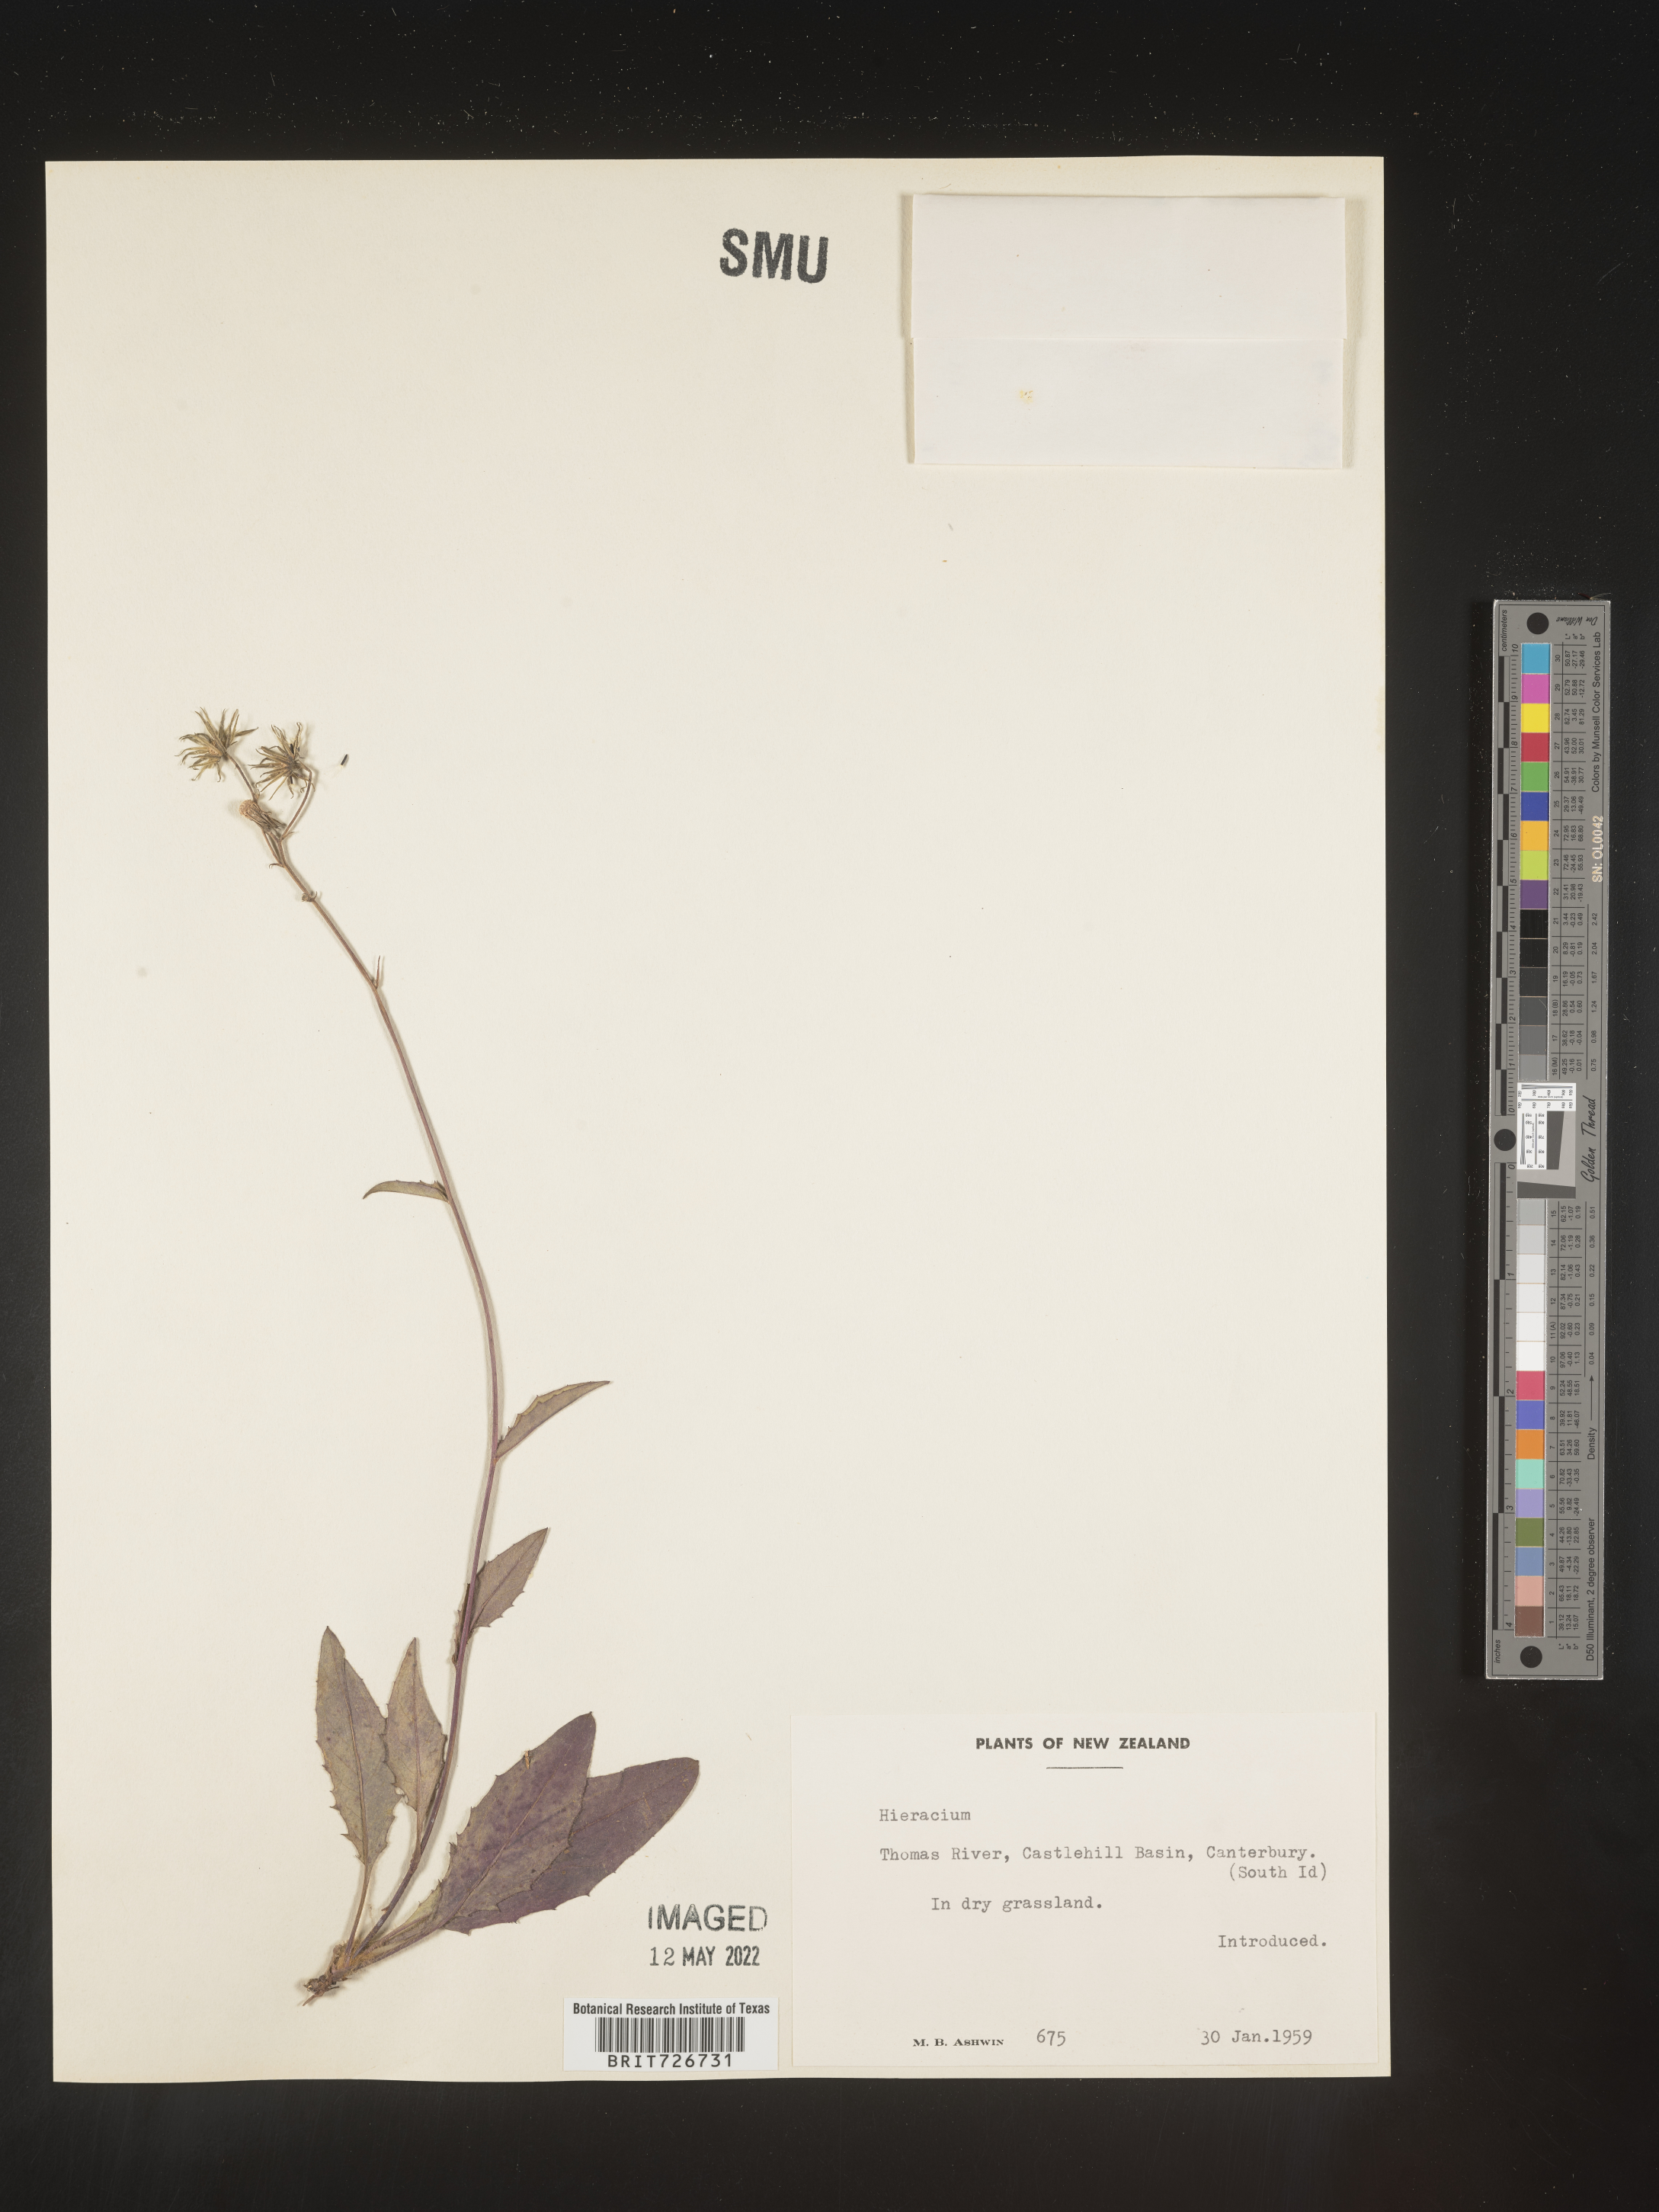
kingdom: Plantae
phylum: Tracheophyta
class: Magnoliopsida
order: Asterales
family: Asteraceae
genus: Hieracium
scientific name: Hieracium
